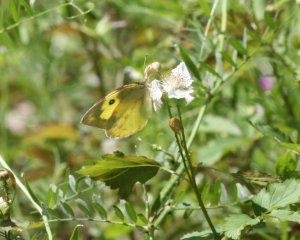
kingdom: Animalia
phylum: Arthropoda
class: Insecta
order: Lepidoptera
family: Pieridae
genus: Zerene
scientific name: Zerene cesonia
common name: Southern Dogface
